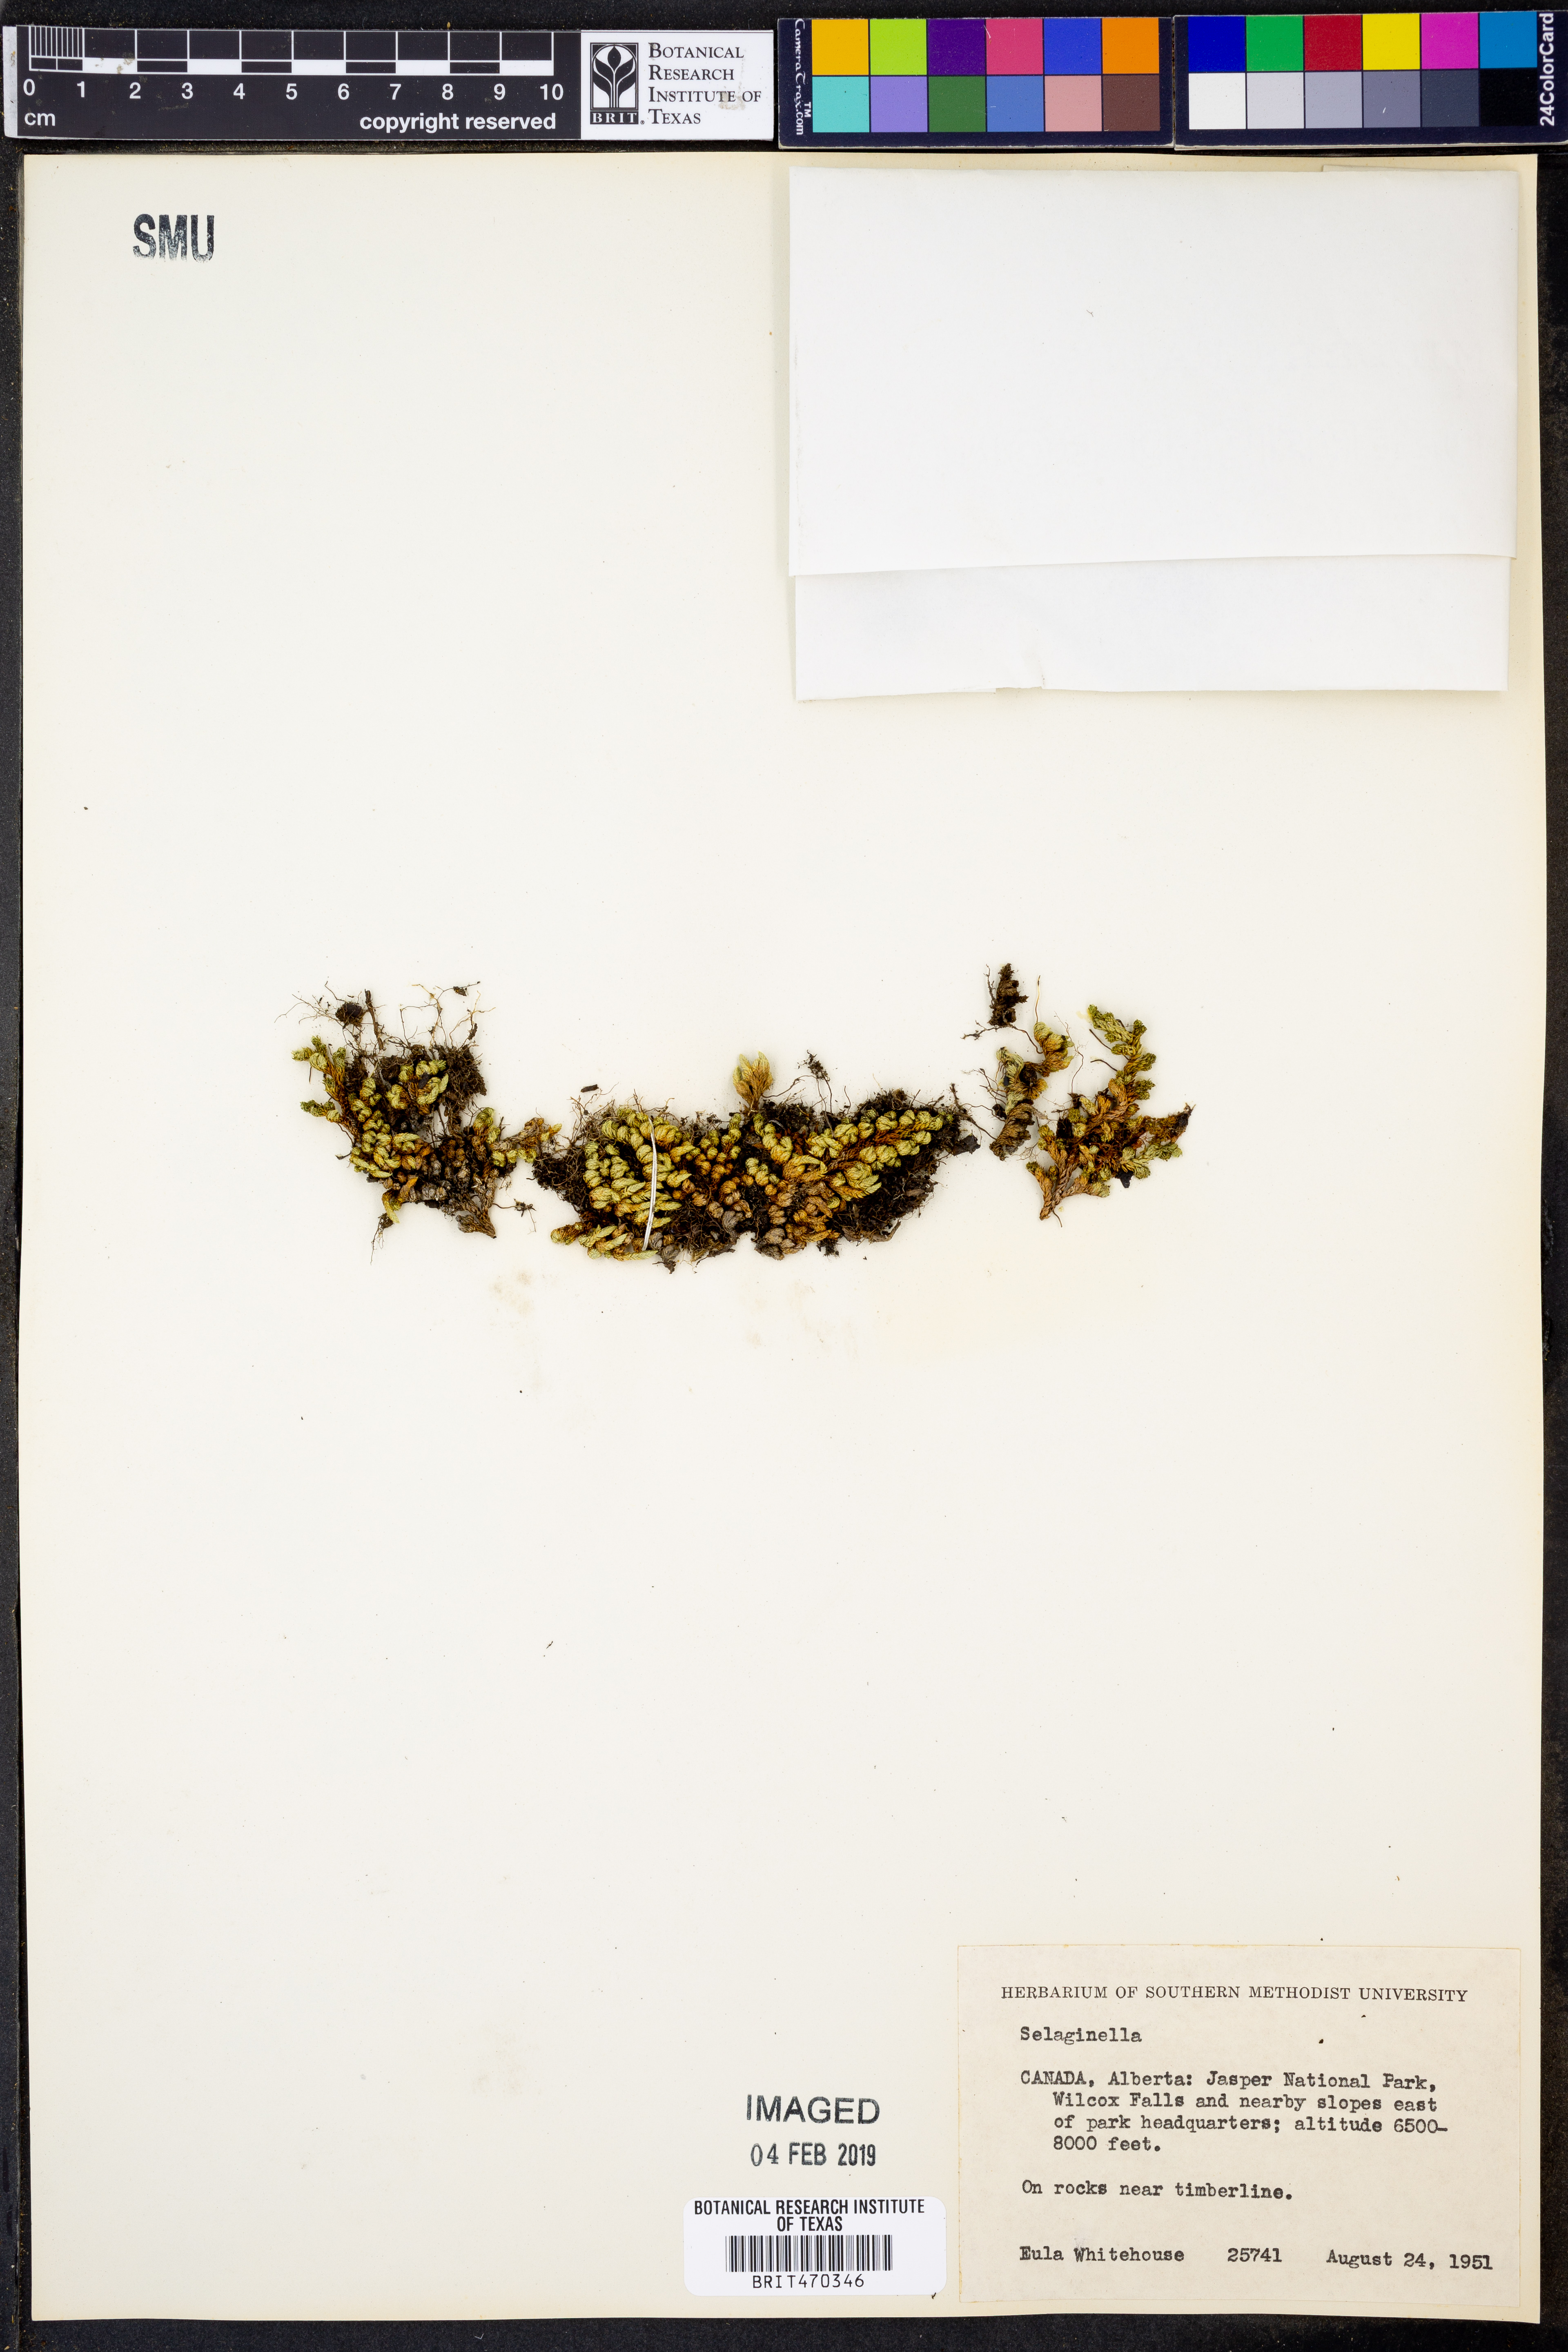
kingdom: Plantae
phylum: Tracheophyta
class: Lycopodiopsida
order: Selaginellales
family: Selaginellaceae
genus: Selaginella
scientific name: Selaginella
